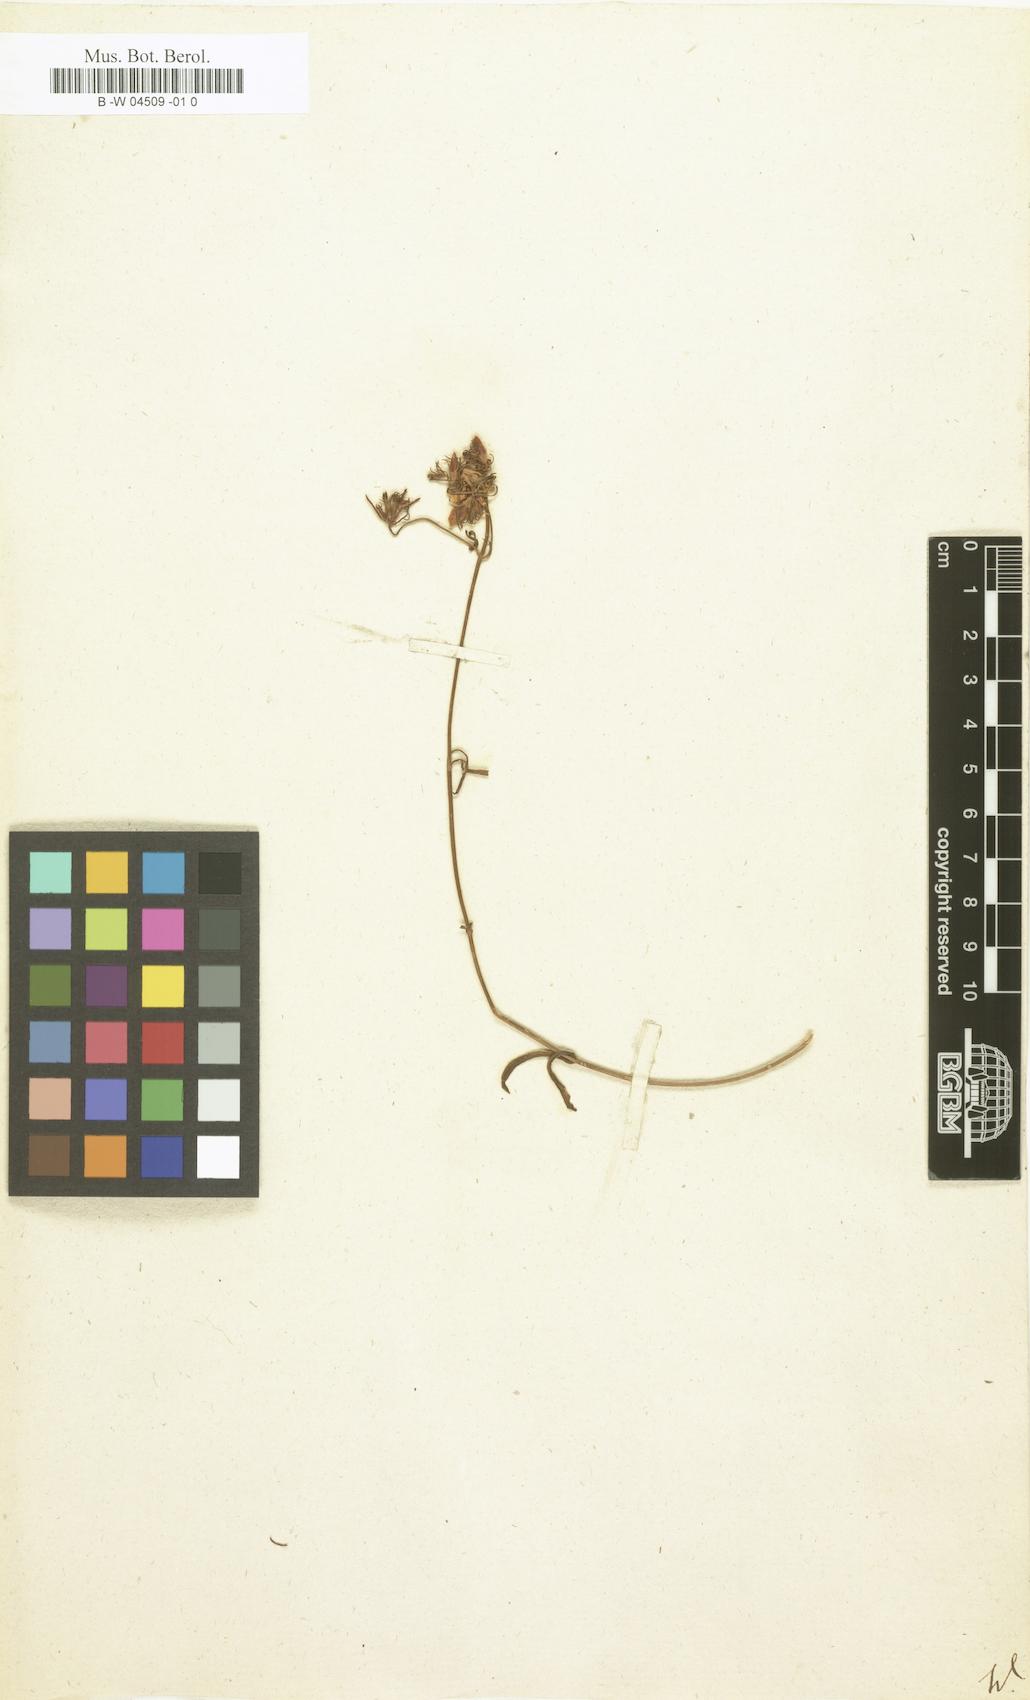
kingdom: Plantae
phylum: Tracheophyta
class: Magnoliopsida
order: Gentianales
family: Gentianaceae
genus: Chironia
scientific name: Chironia
